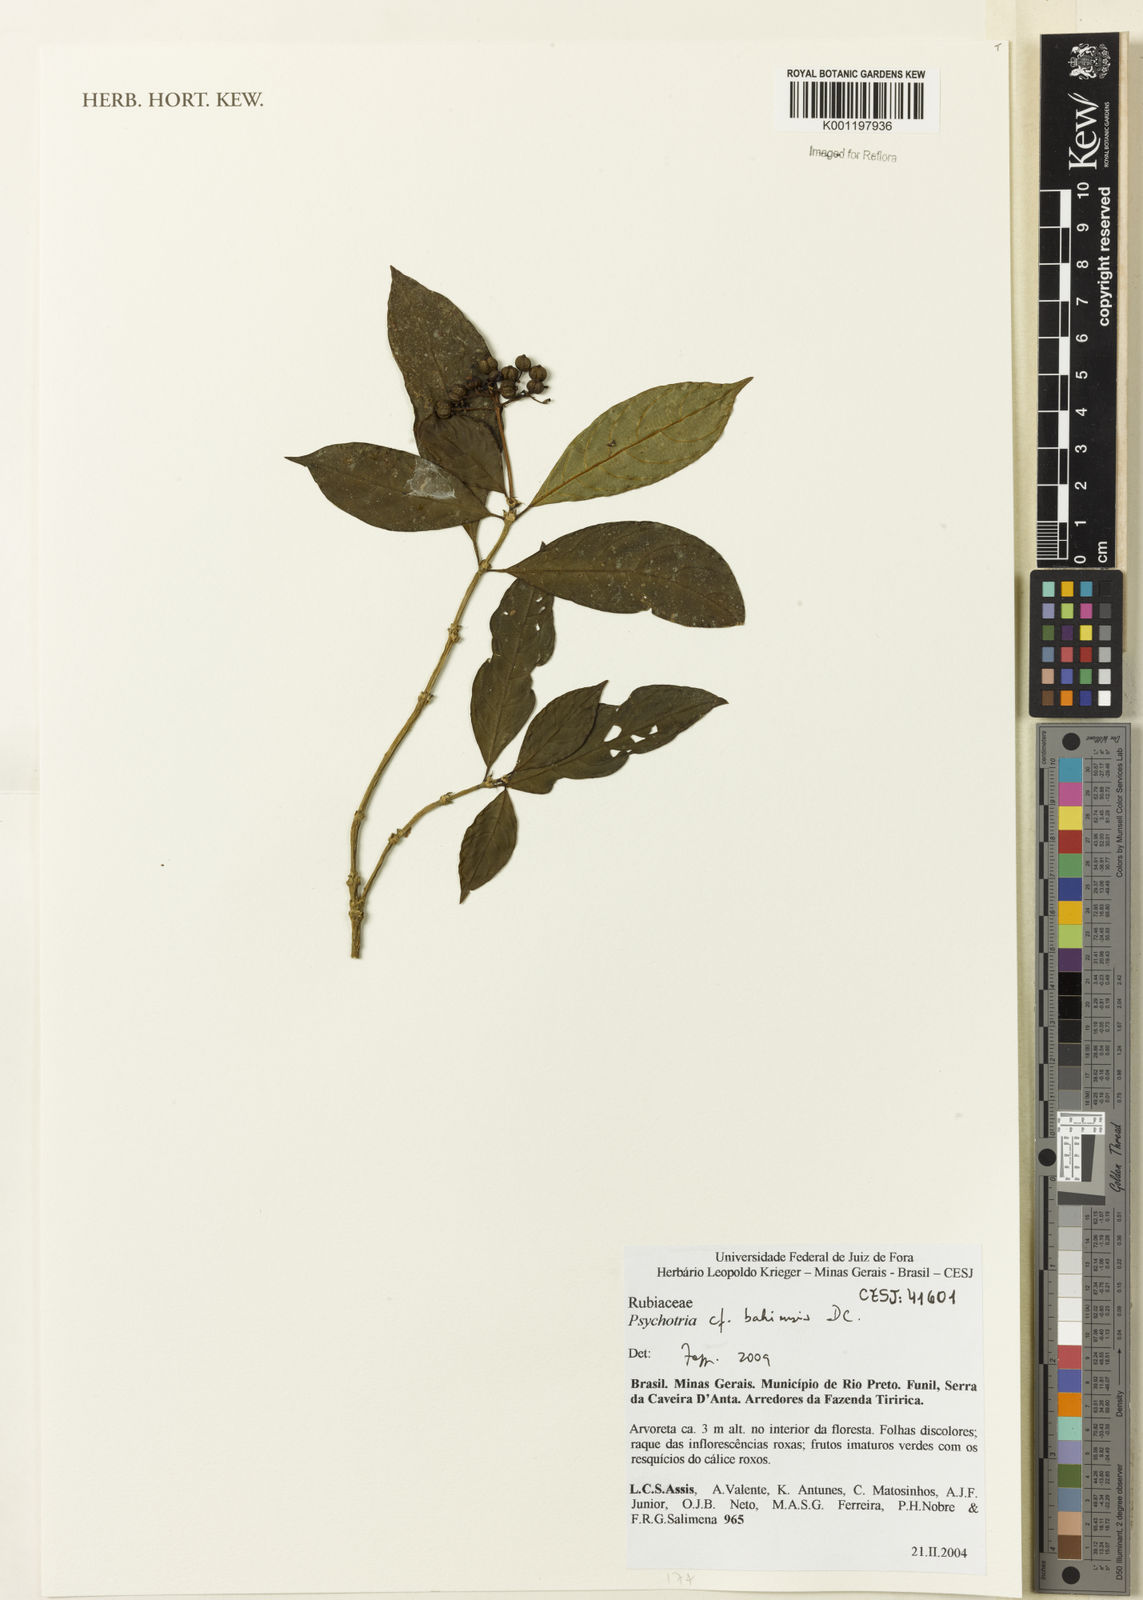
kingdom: Plantae
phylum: Tracheophyta
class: Magnoliopsida
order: Gentianales
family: Rubiaceae
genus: Psychotria
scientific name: Psychotria bahiensis
